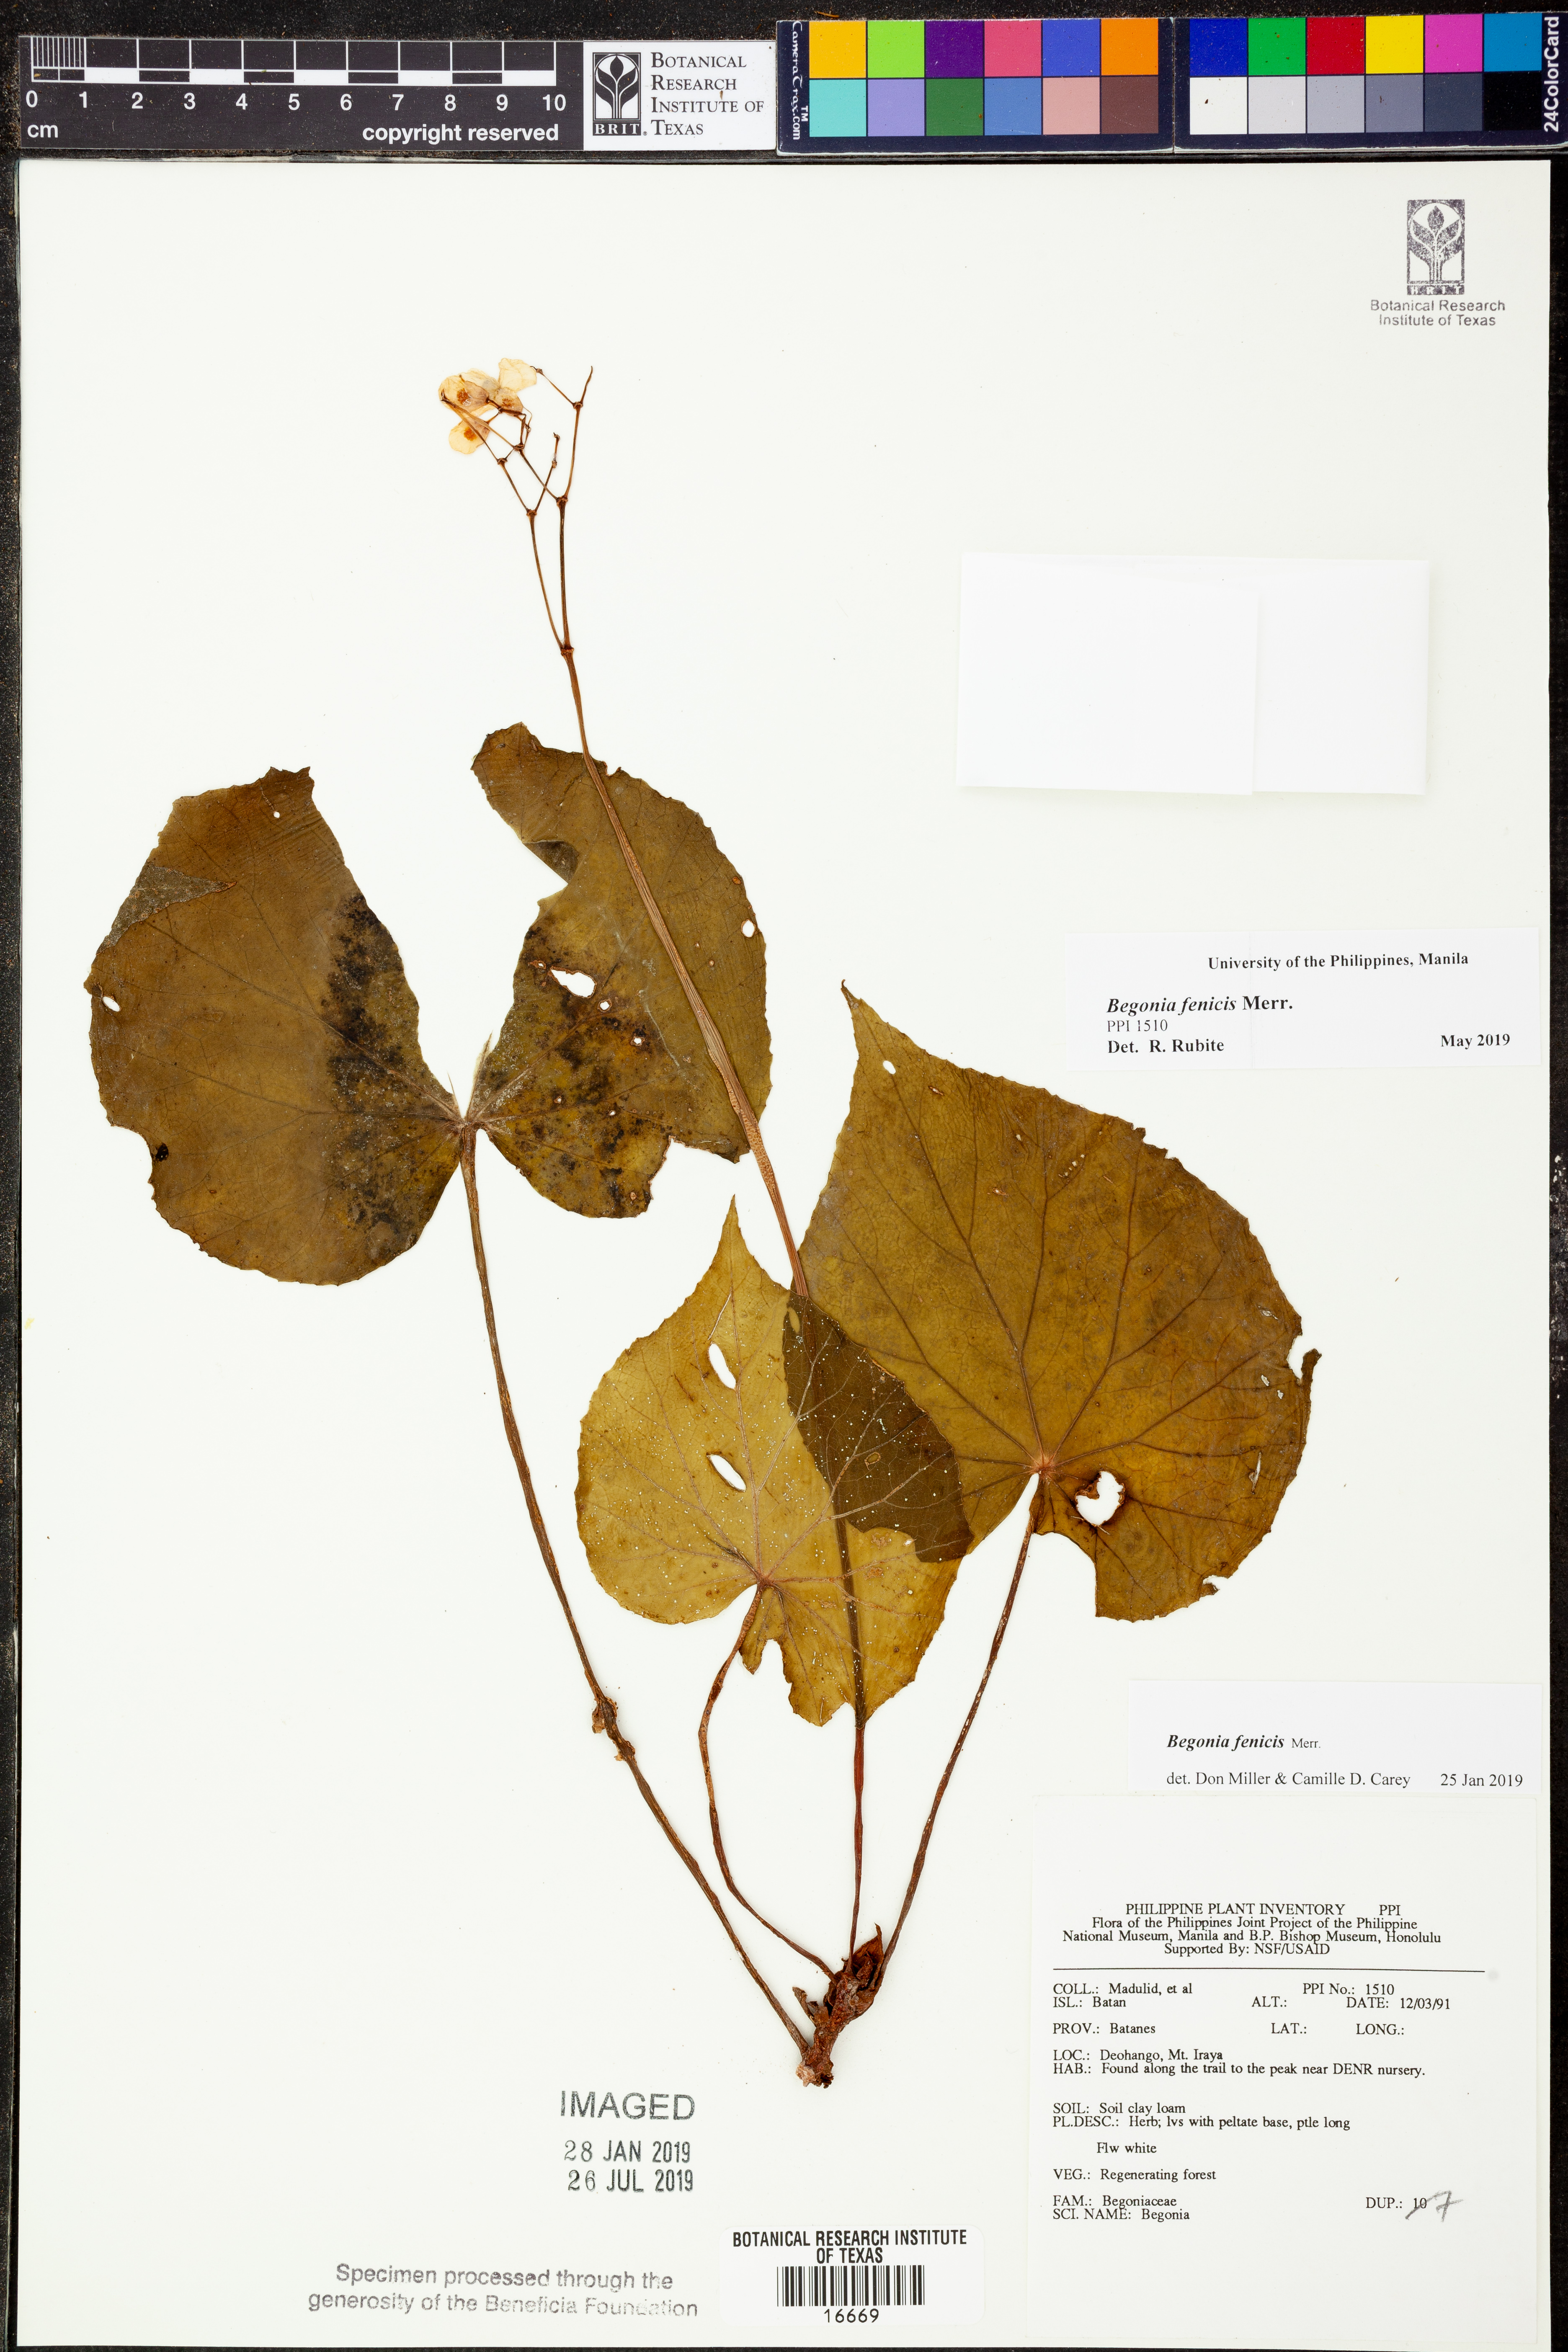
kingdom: Plantae
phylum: Tracheophyta
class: Magnoliopsida
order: Cucurbitales
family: Begoniaceae
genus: Begonia
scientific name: Begonia fenicis
